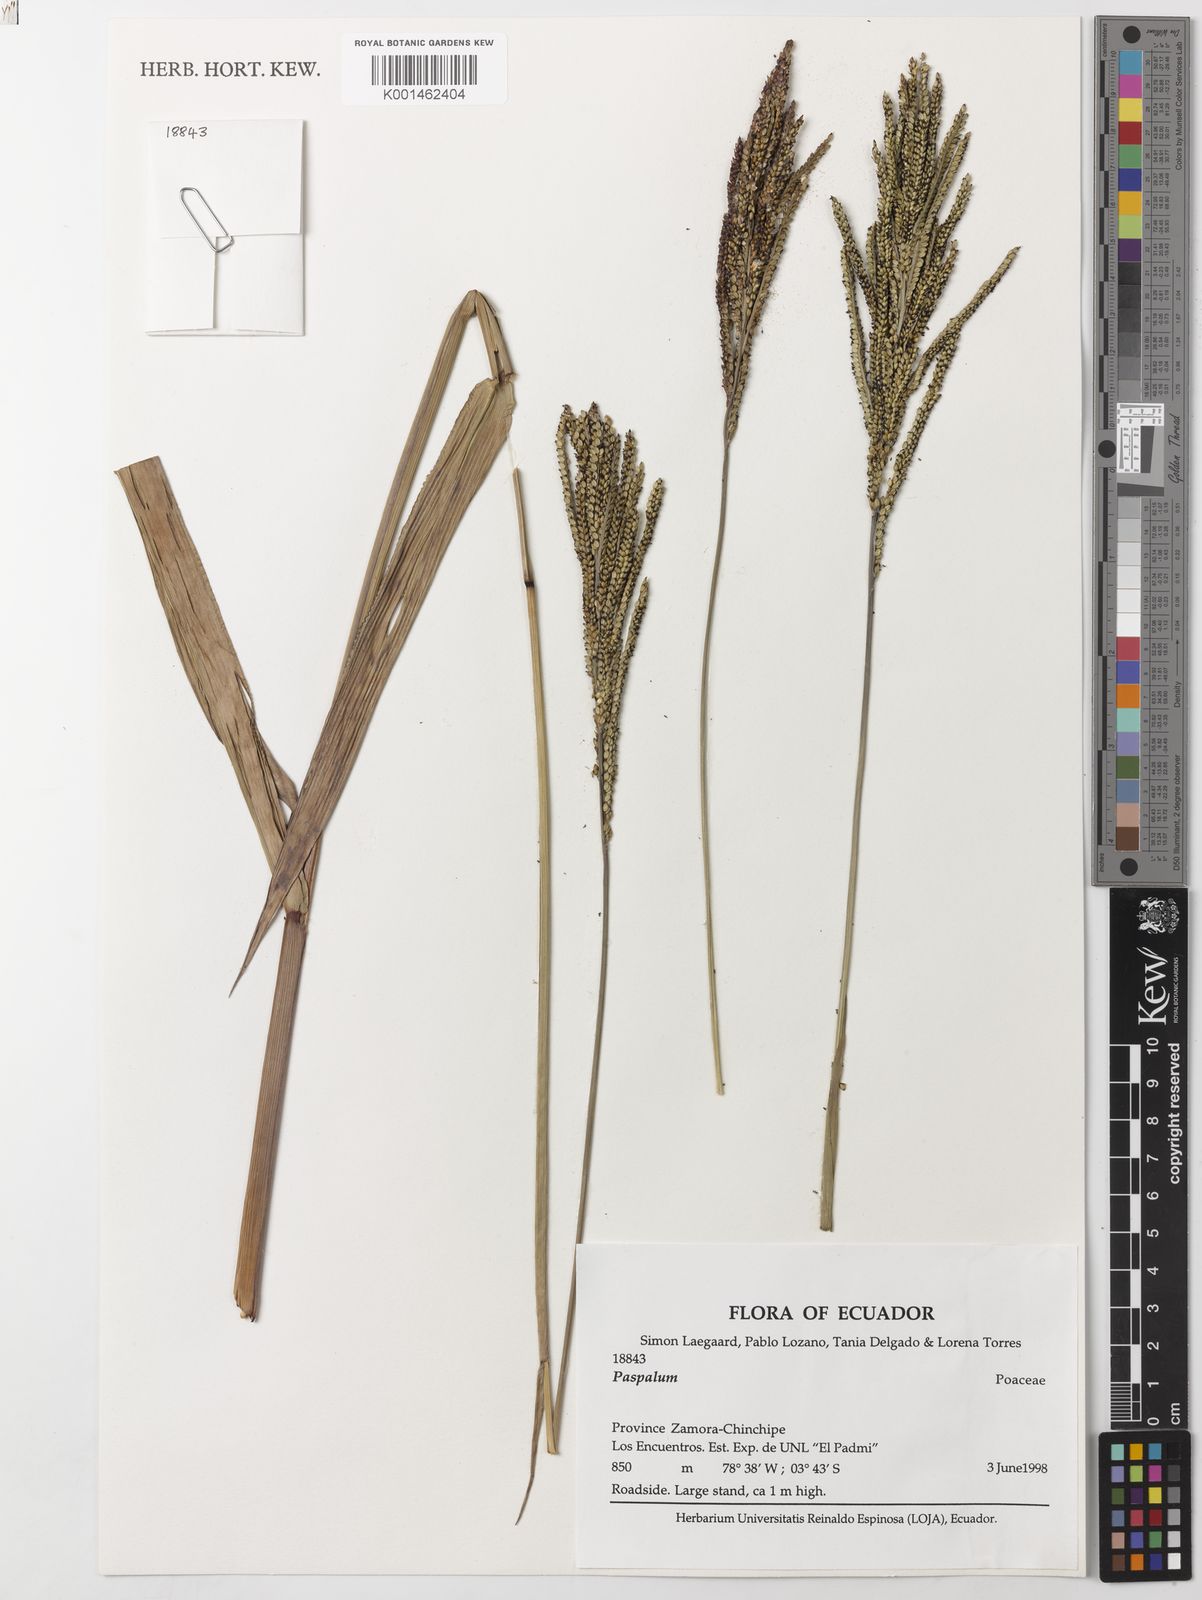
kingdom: Plantae
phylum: Tracheophyta
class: Liliopsida
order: Poales
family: Poaceae
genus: Paspalum
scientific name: Paspalum affine
